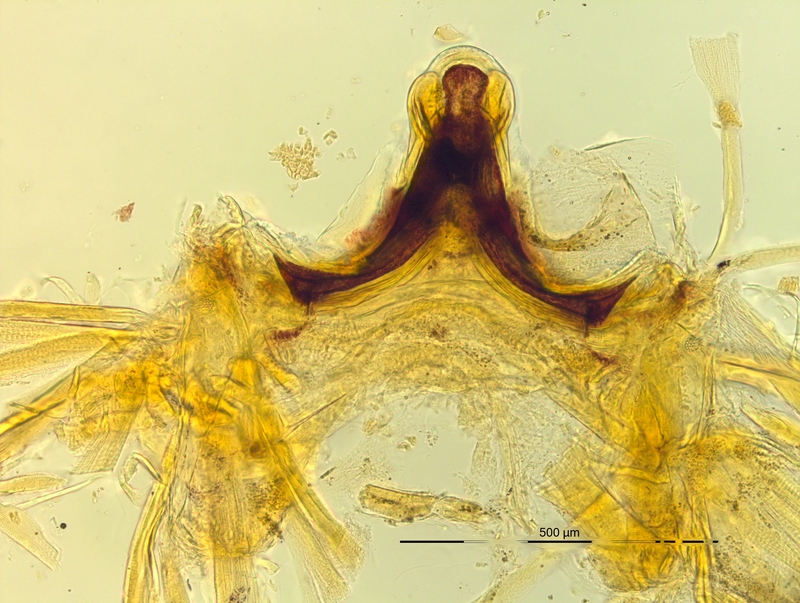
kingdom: Animalia
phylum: Arthropoda
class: Diplopoda
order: Chordeumatida
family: Craspedosomatidae
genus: Pyrgocyphosoma
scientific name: Pyrgocyphosoma longilamellatum
